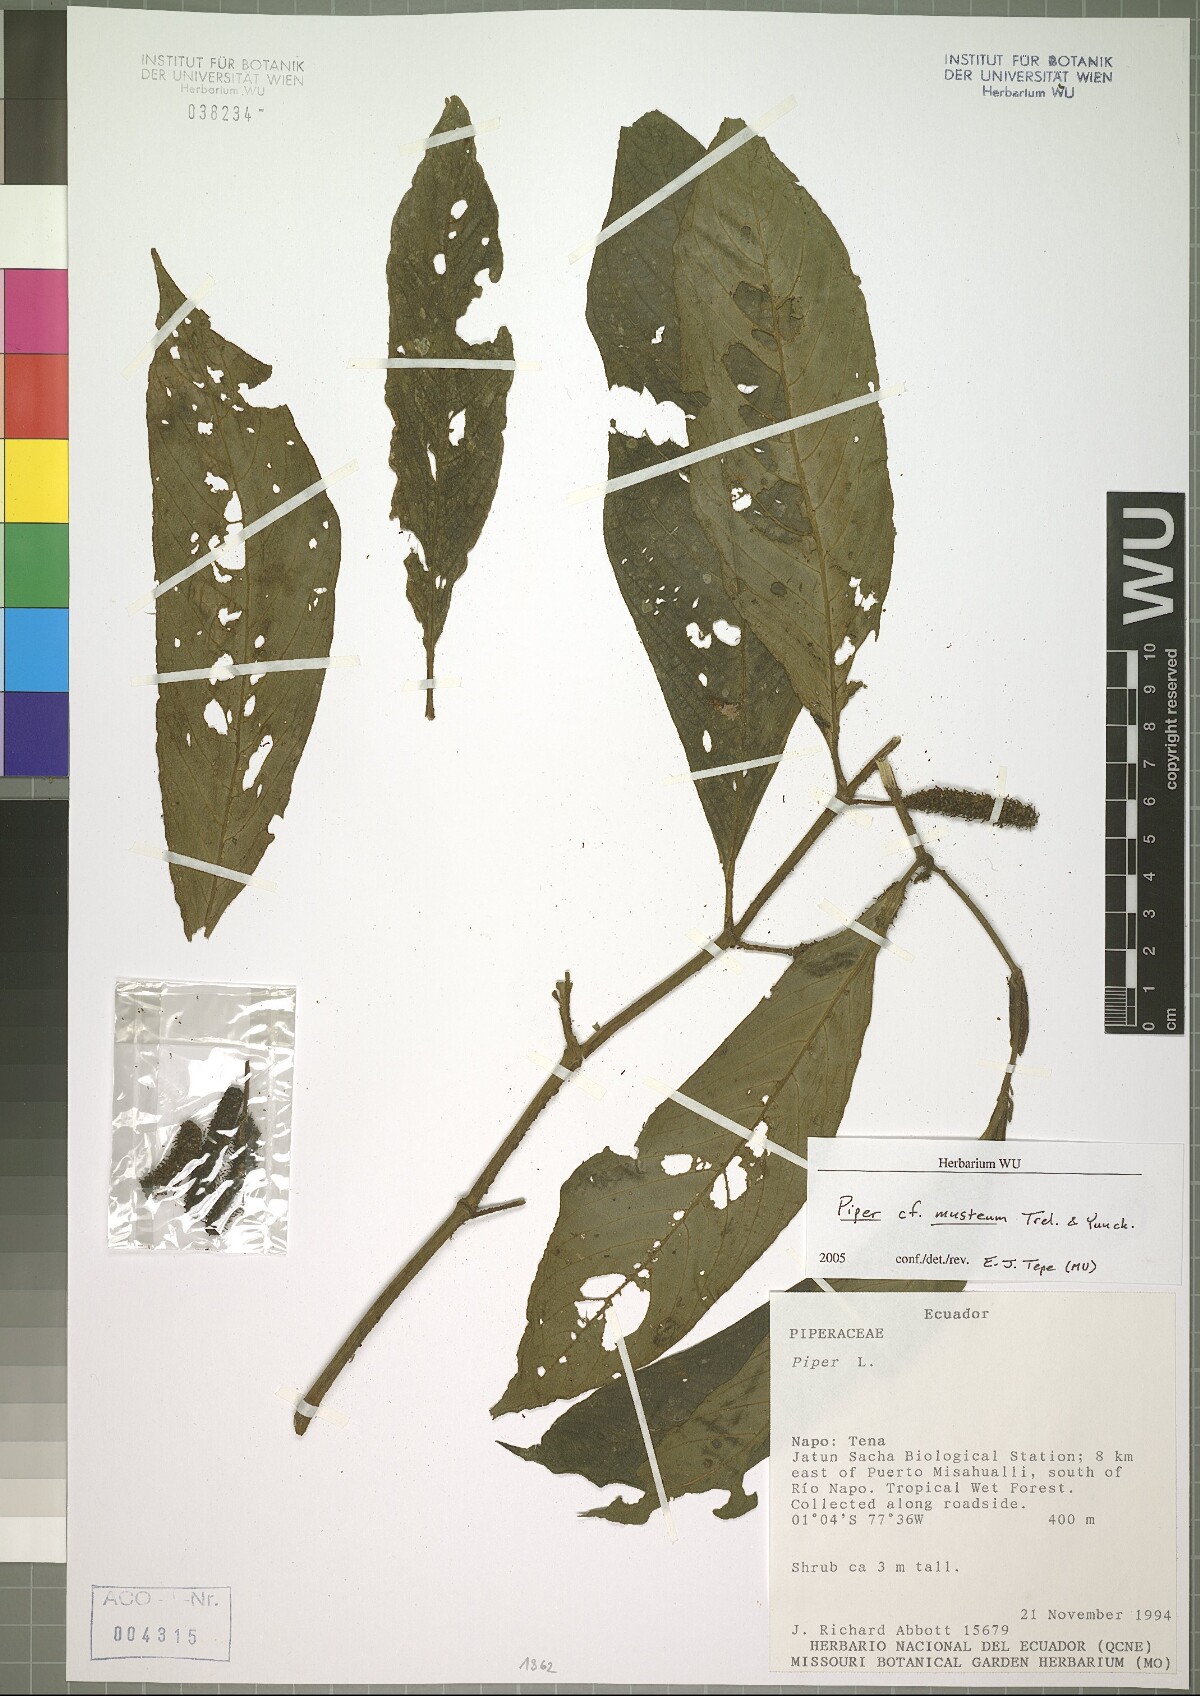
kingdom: Plantae
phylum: Tracheophyta
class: Magnoliopsida
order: Piperales
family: Piperaceae
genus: Piper
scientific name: Piper musteum
